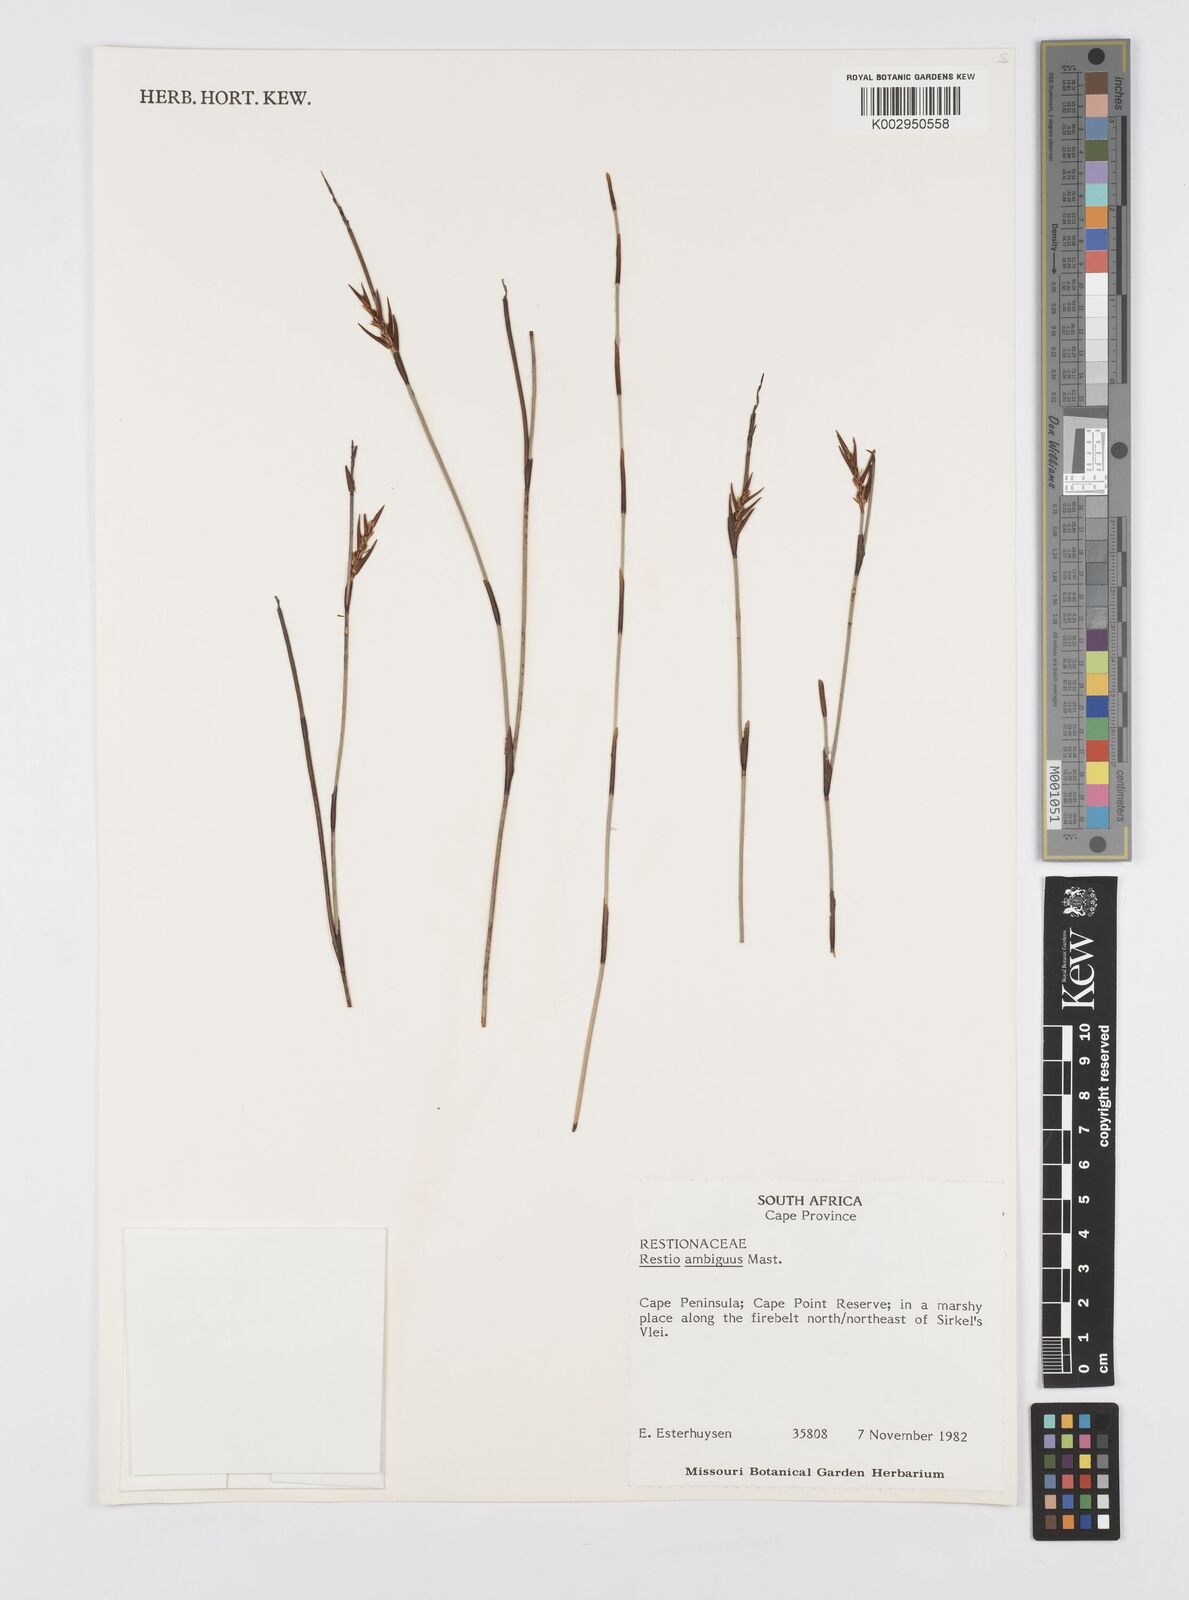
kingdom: Plantae
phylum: Tracheophyta
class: Liliopsida
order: Poales
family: Restionaceae
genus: Soroveta
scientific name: Soroveta ambigua
